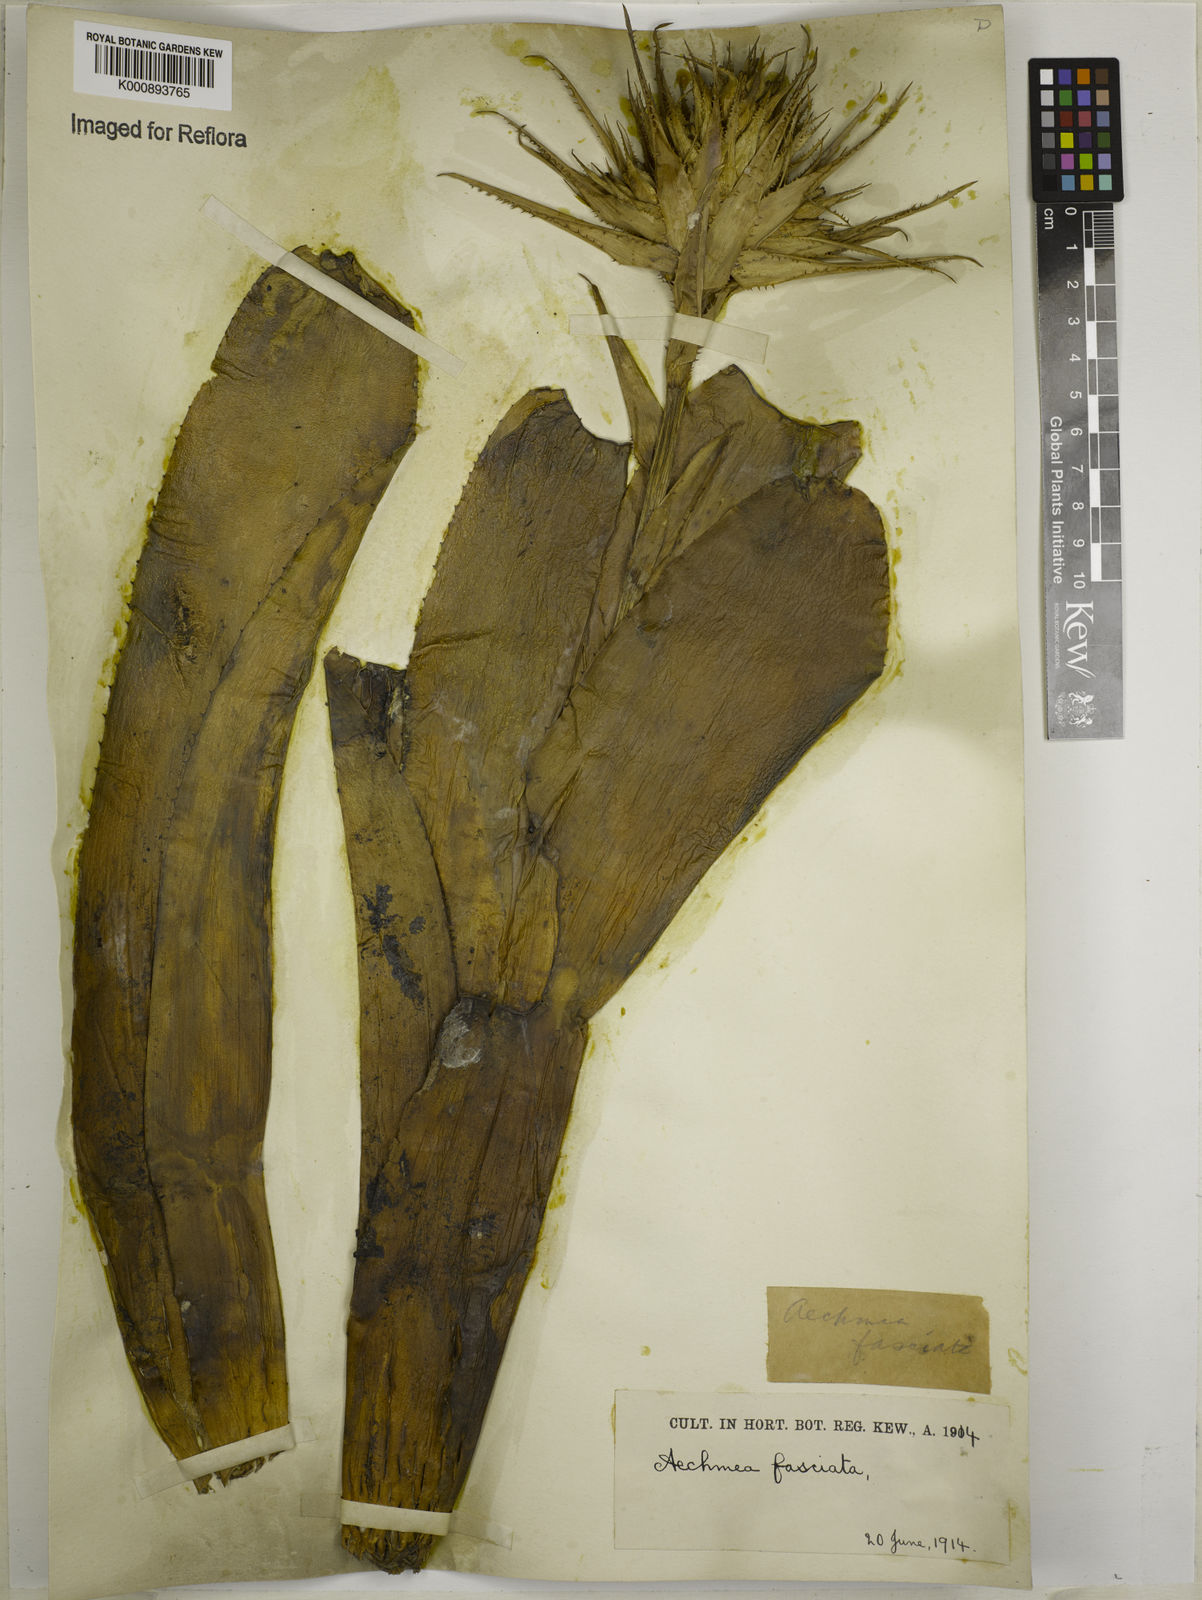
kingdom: Plantae
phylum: Tracheophyta
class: Liliopsida
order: Poales
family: Bromeliaceae
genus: Aechmea
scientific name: Aechmea fasciata
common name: Urnplant
